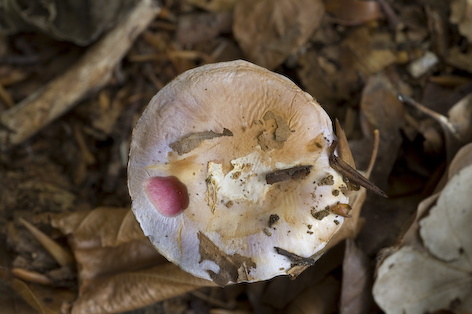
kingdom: Fungi
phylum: Basidiomycota
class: Agaricomycetes
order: Agaricales
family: Cortinariaceae
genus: Calonarius
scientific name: Calonarius nymphicolor
